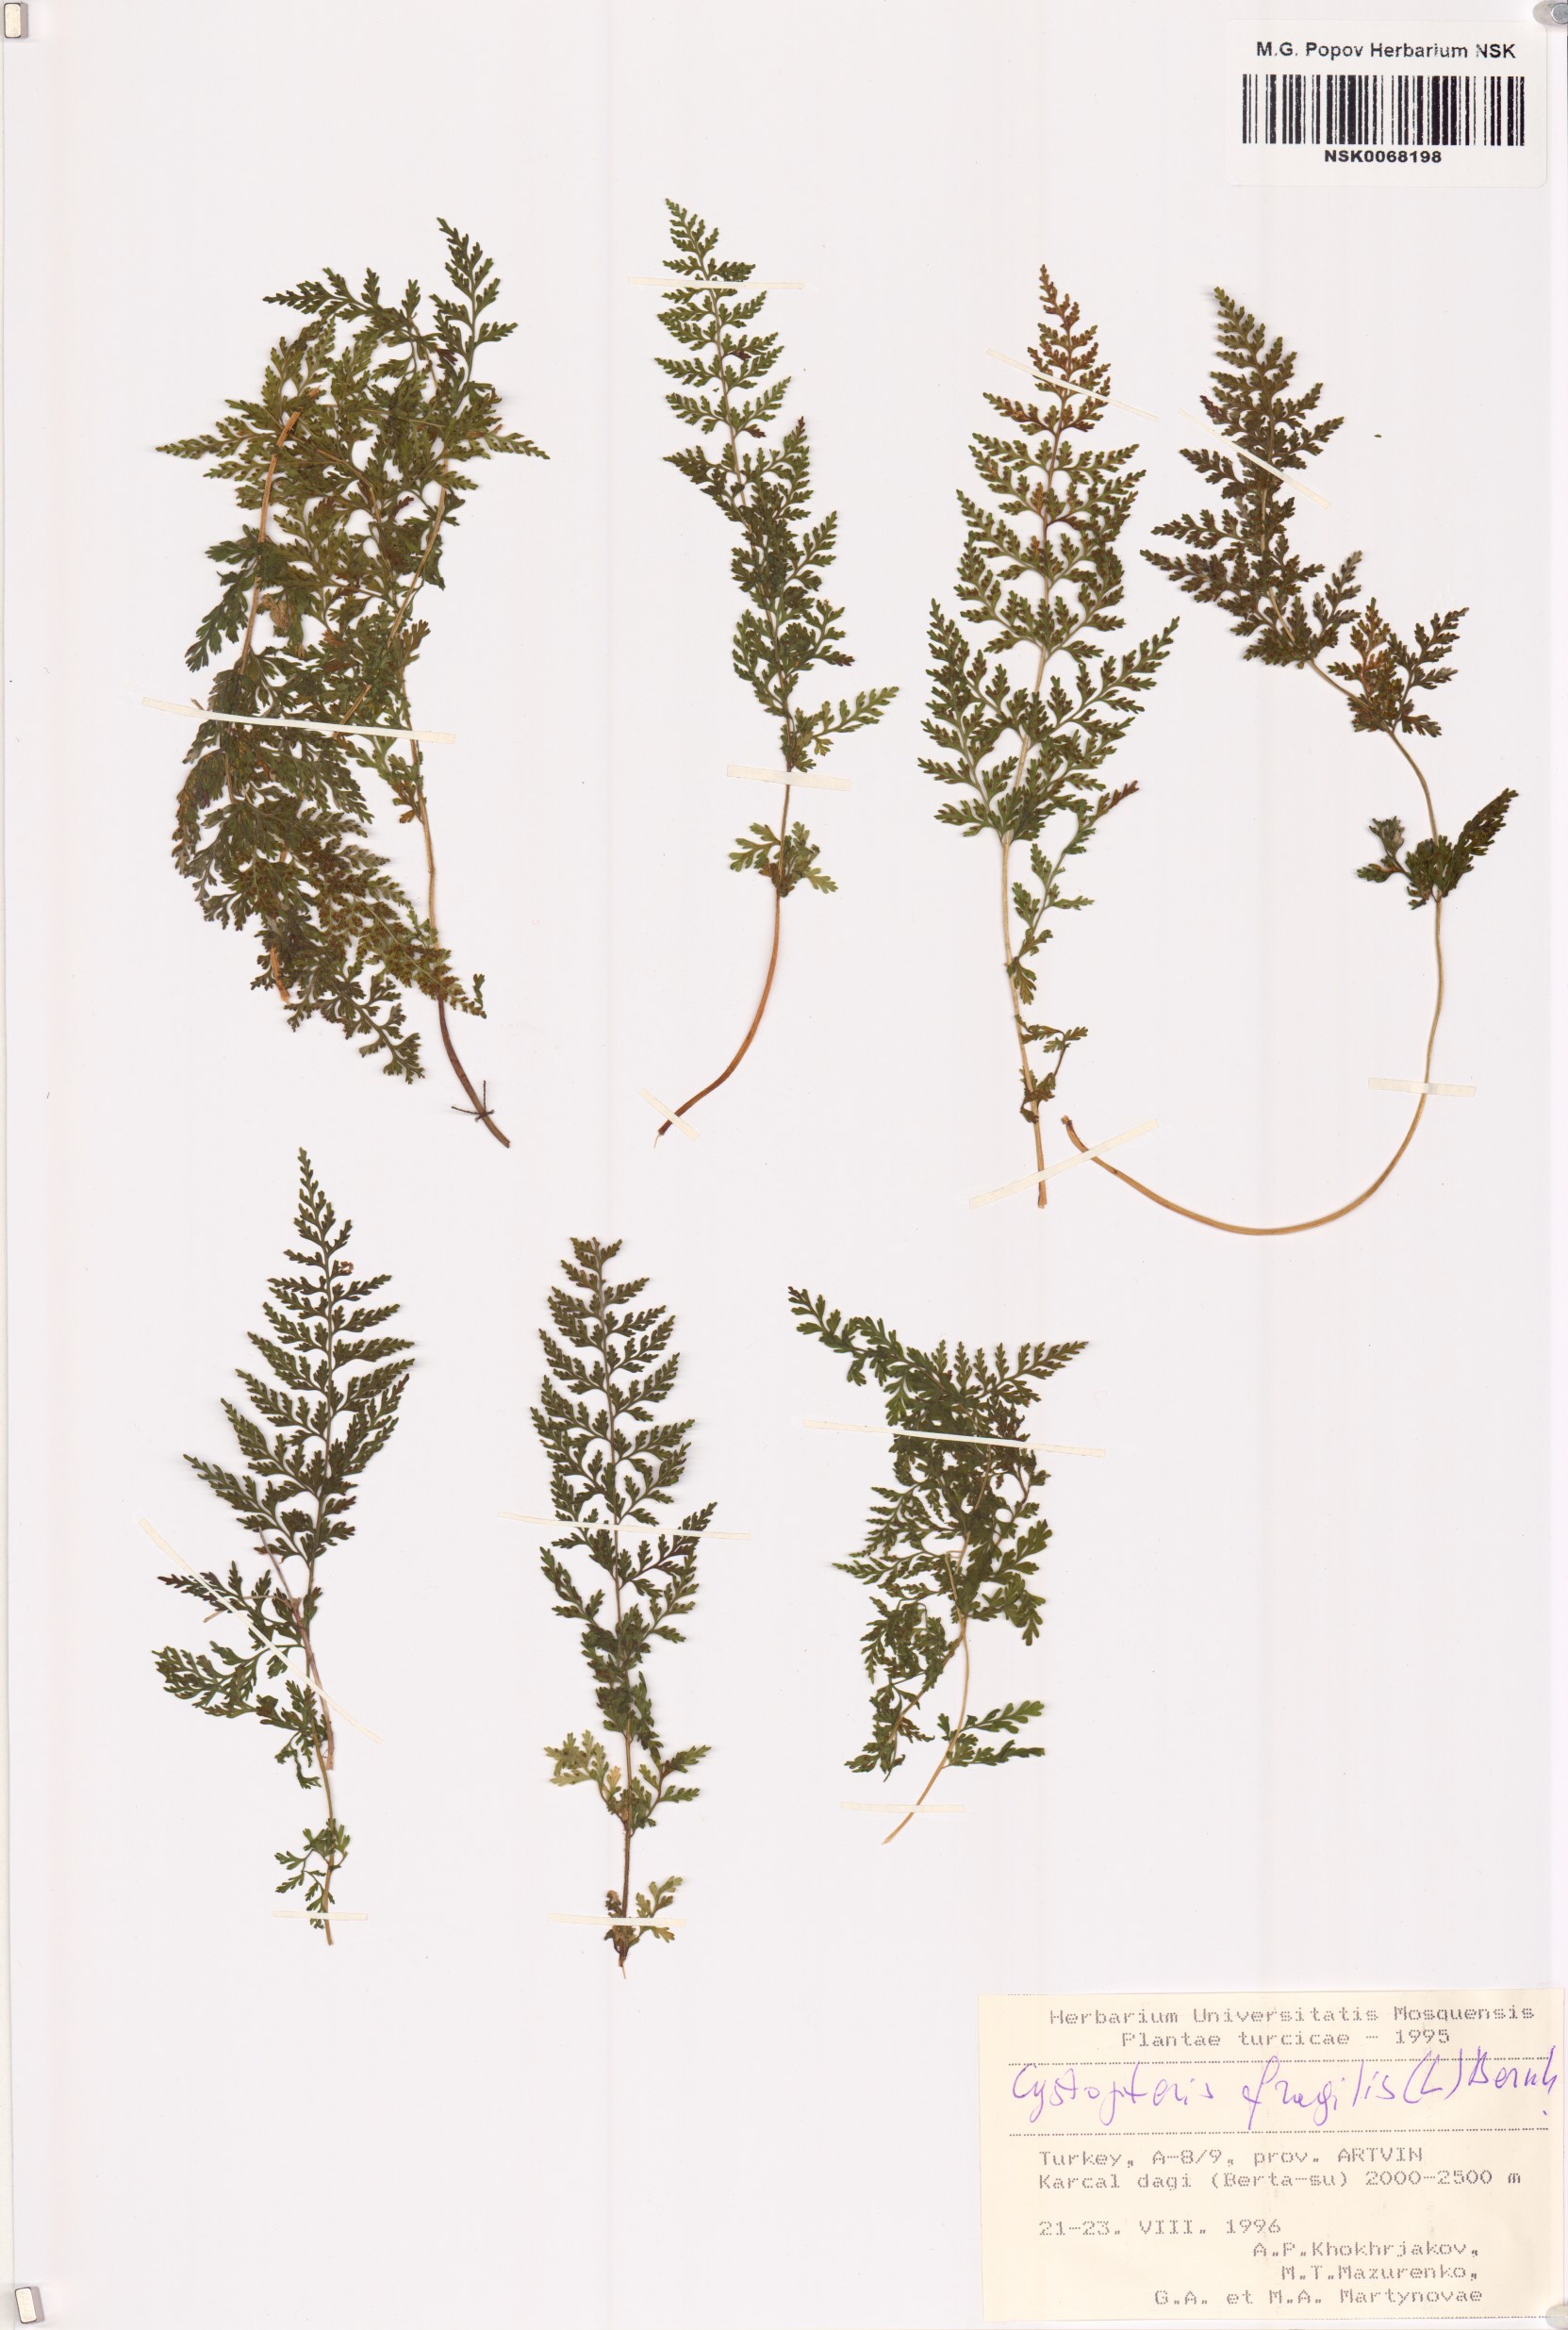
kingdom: Plantae
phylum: Tracheophyta
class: Polypodiopsida
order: Polypodiales
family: Cystopteridaceae
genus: Cystopteris
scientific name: Cystopteris fragilis
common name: Brittle bladder fern
